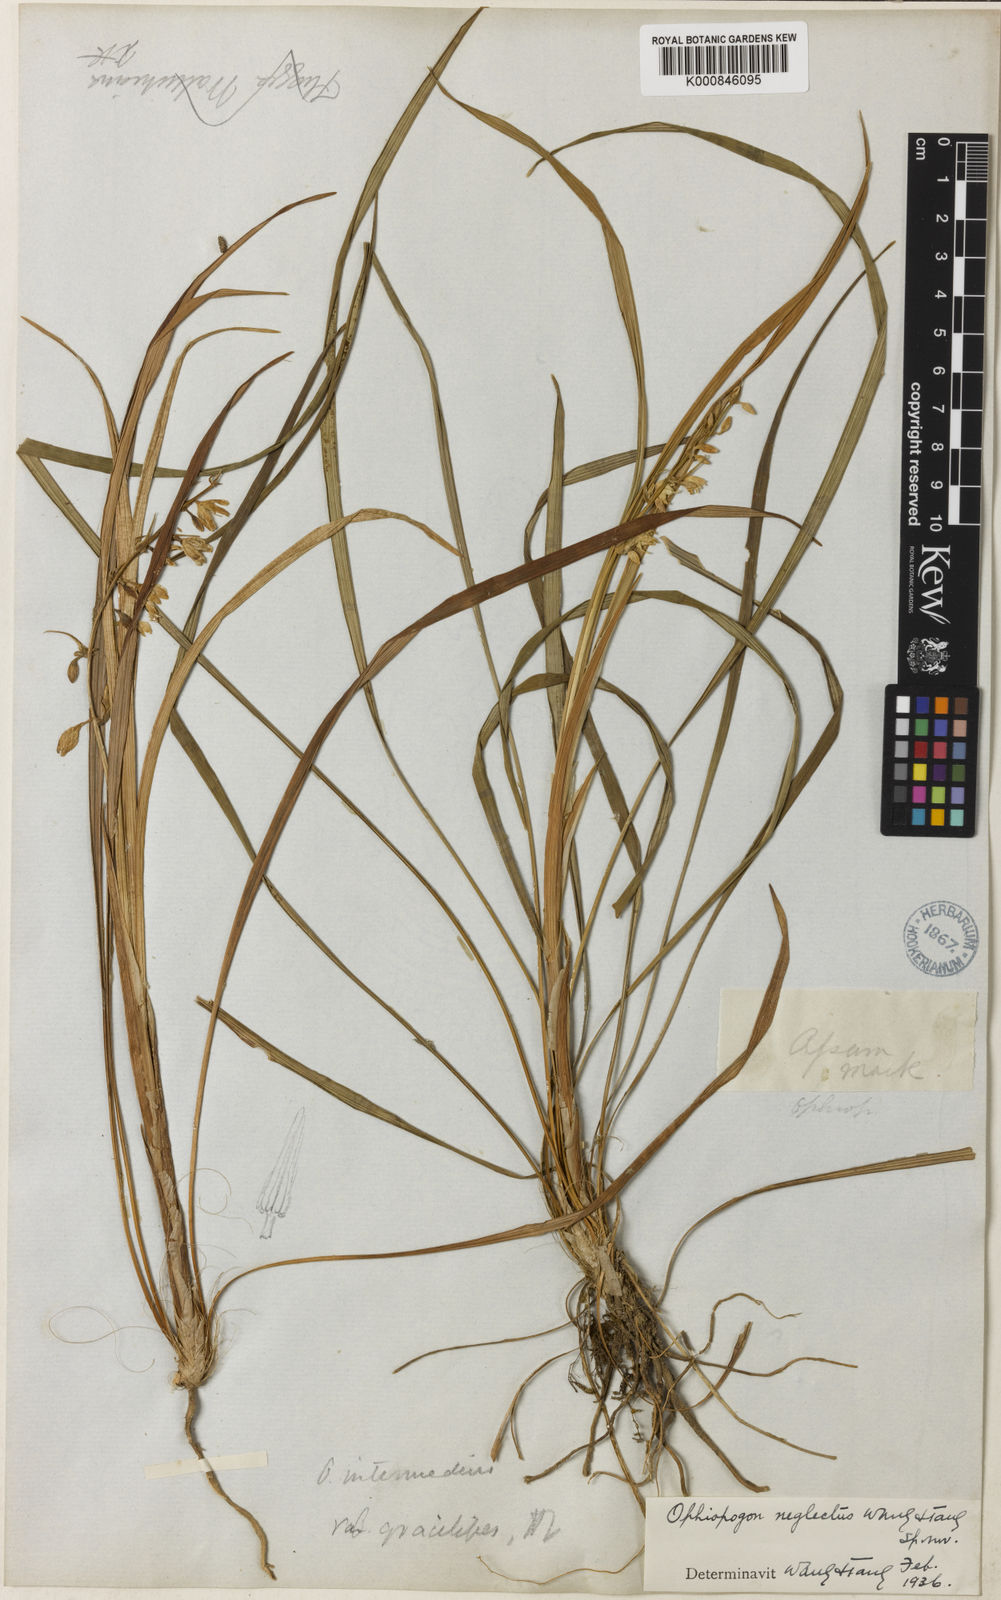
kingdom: Plantae
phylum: Tracheophyta
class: Liliopsida
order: Asparagales
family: Asparagaceae
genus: Ophiopogon
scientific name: Ophiopogon intermedius
